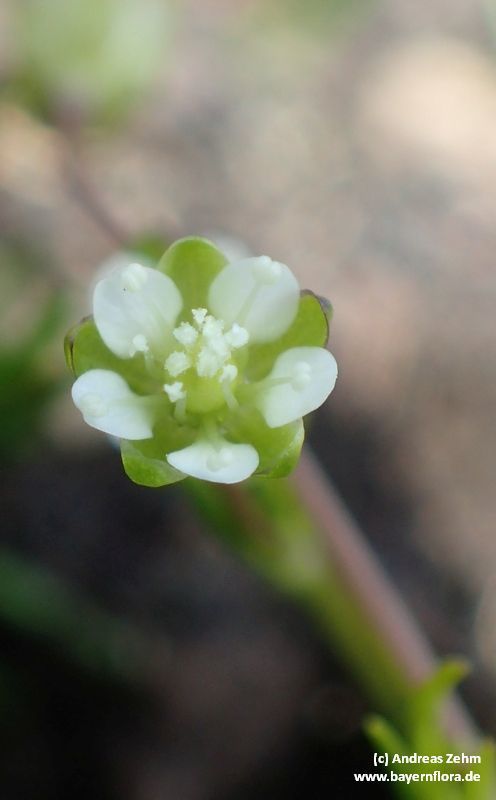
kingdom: Plantae
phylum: Tracheophyta
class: Magnoliopsida
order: Caryophyllales
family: Caryophyllaceae
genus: Sagina
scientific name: Sagina saginoides
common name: Alpine pearlwort
